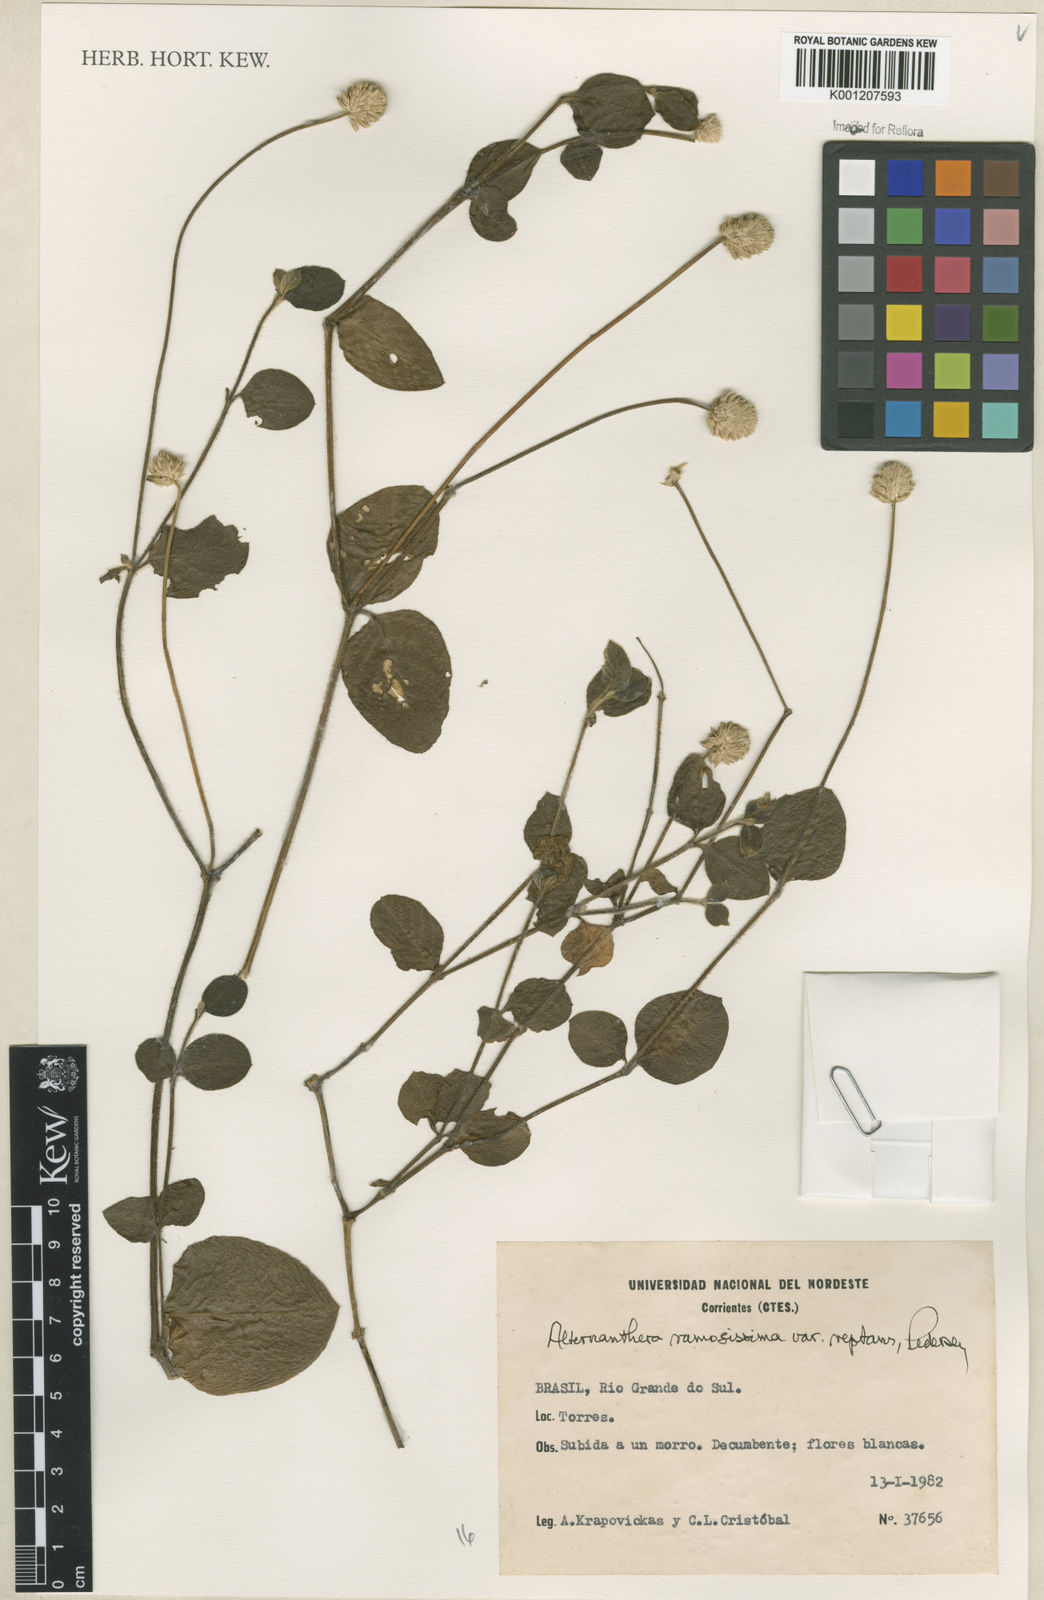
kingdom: Plantae
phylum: Tracheophyta
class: Magnoliopsida
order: Caryophyllales
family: Amaranthaceae
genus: Alternanthera
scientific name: Alternanthera ramosissima
